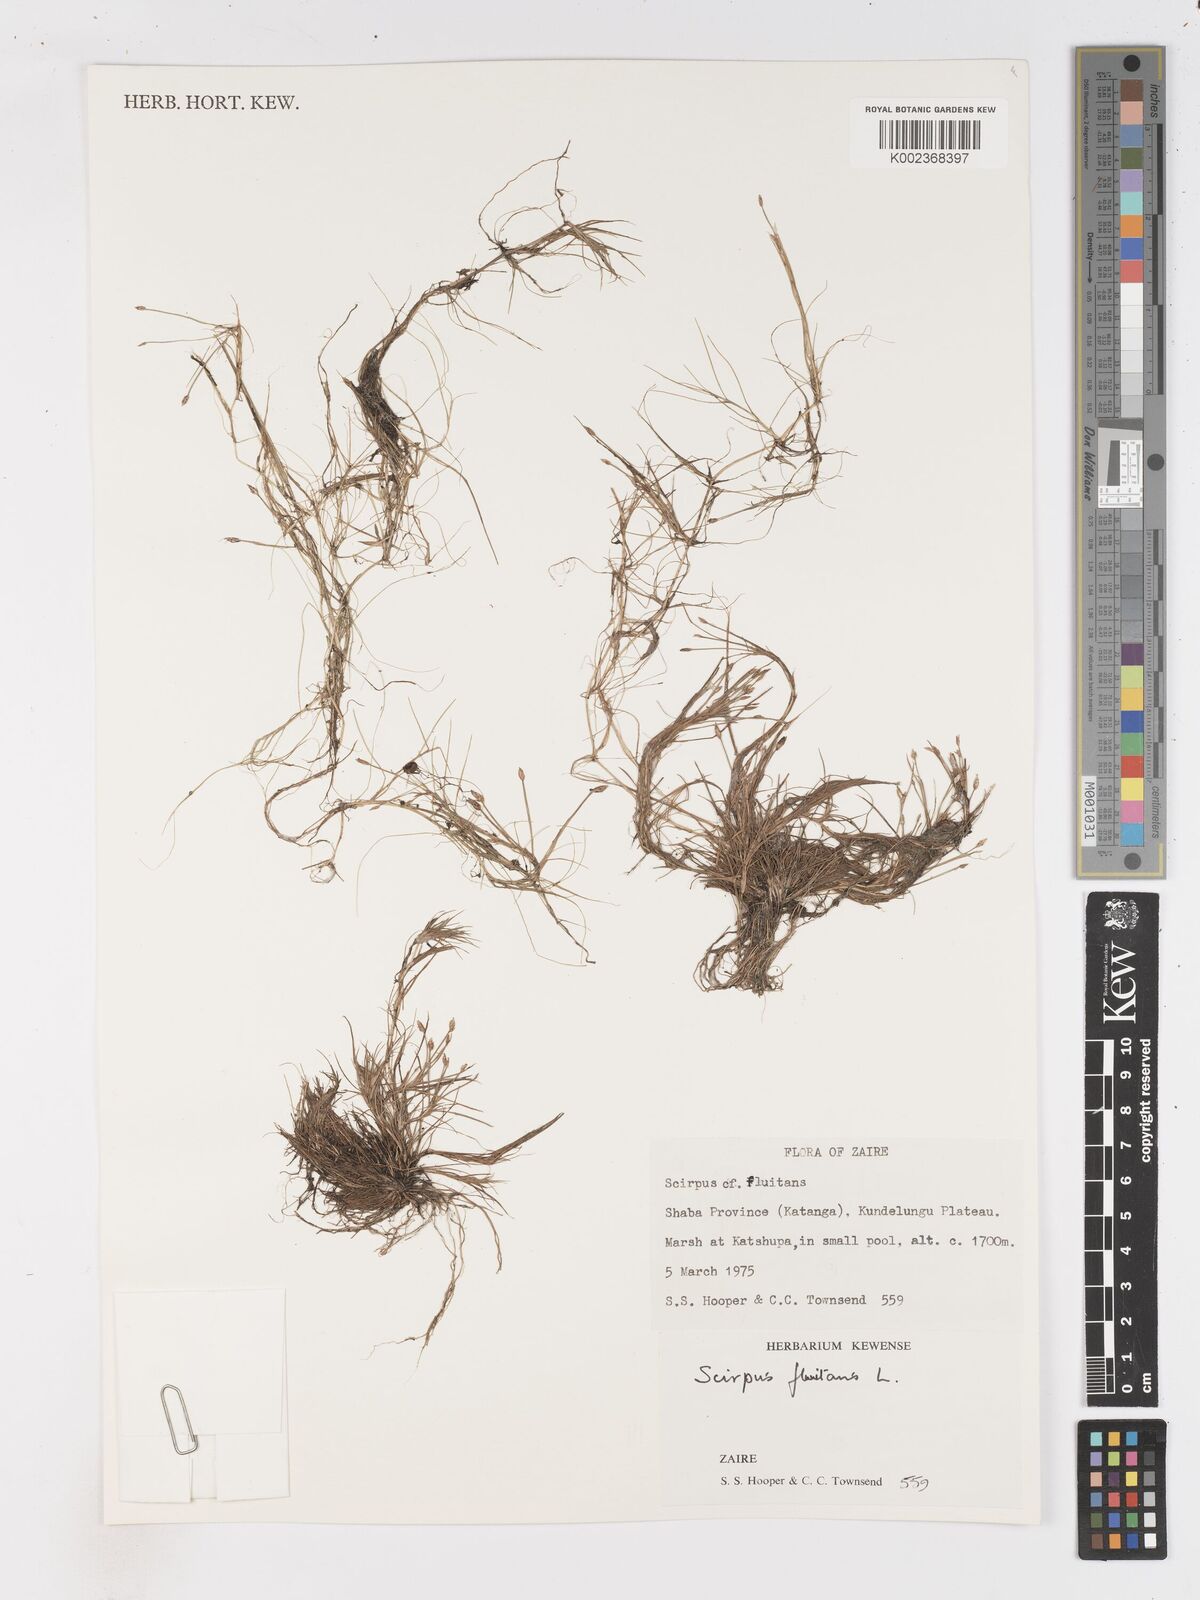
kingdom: Plantae
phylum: Tracheophyta
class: Liliopsida
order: Poales
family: Cyperaceae
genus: Isolepis
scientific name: Isolepis fluitans
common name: Floating club-rush
